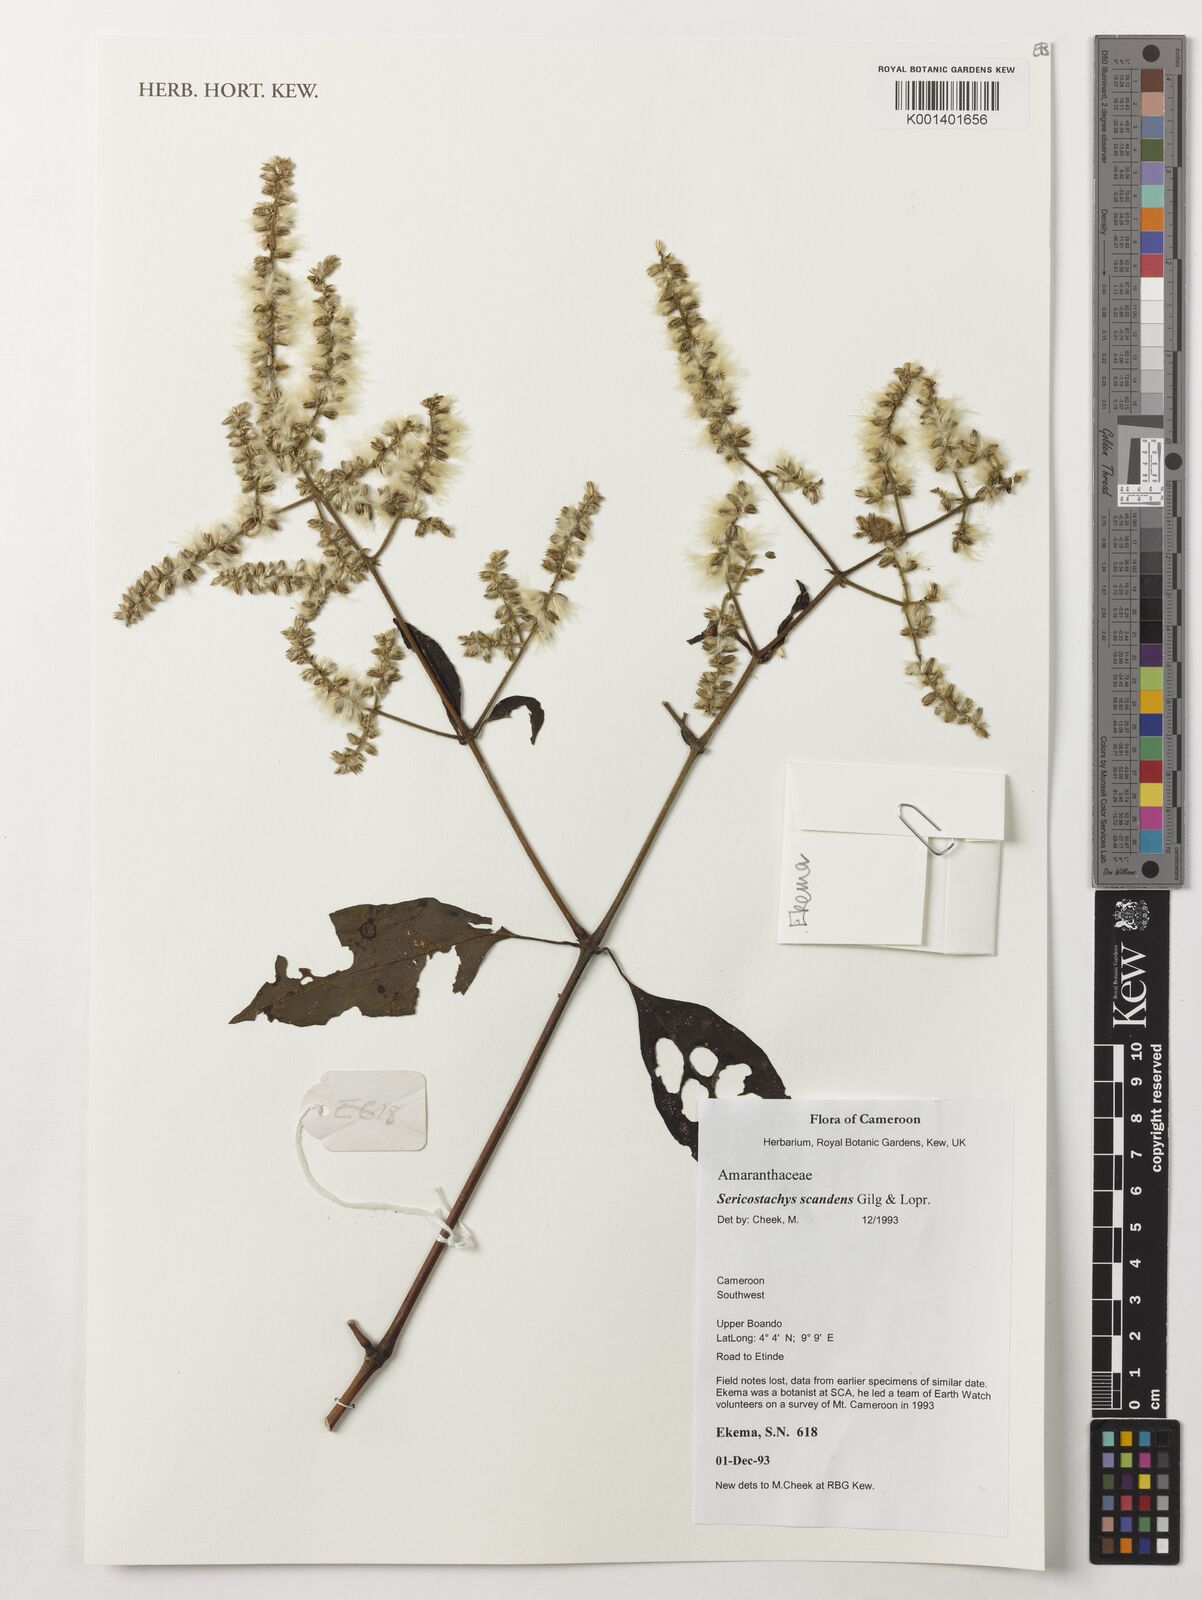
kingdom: Plantae
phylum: Tracheophyta
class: Magnoliopsida
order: Caryophyllales
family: Amaranthaceae
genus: Sericostachys
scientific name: Sericostachys scandens
